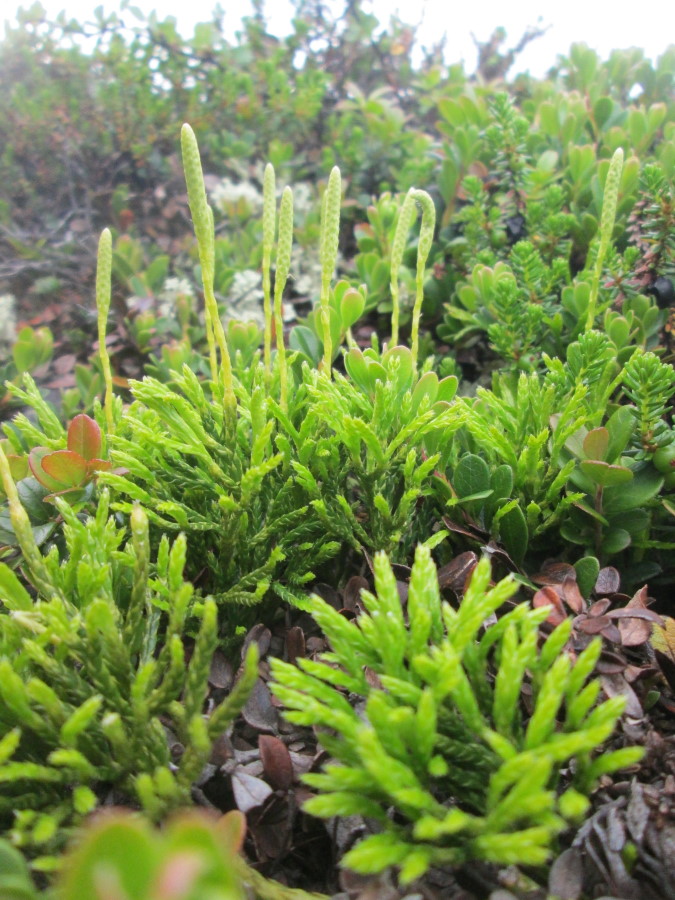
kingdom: Plantae
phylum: Tracheophyta
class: Lycopodiopsida
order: Lycopodiales
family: Lycopodiaceae
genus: Diphasiastrum
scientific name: Diphasiastrum alpinum
